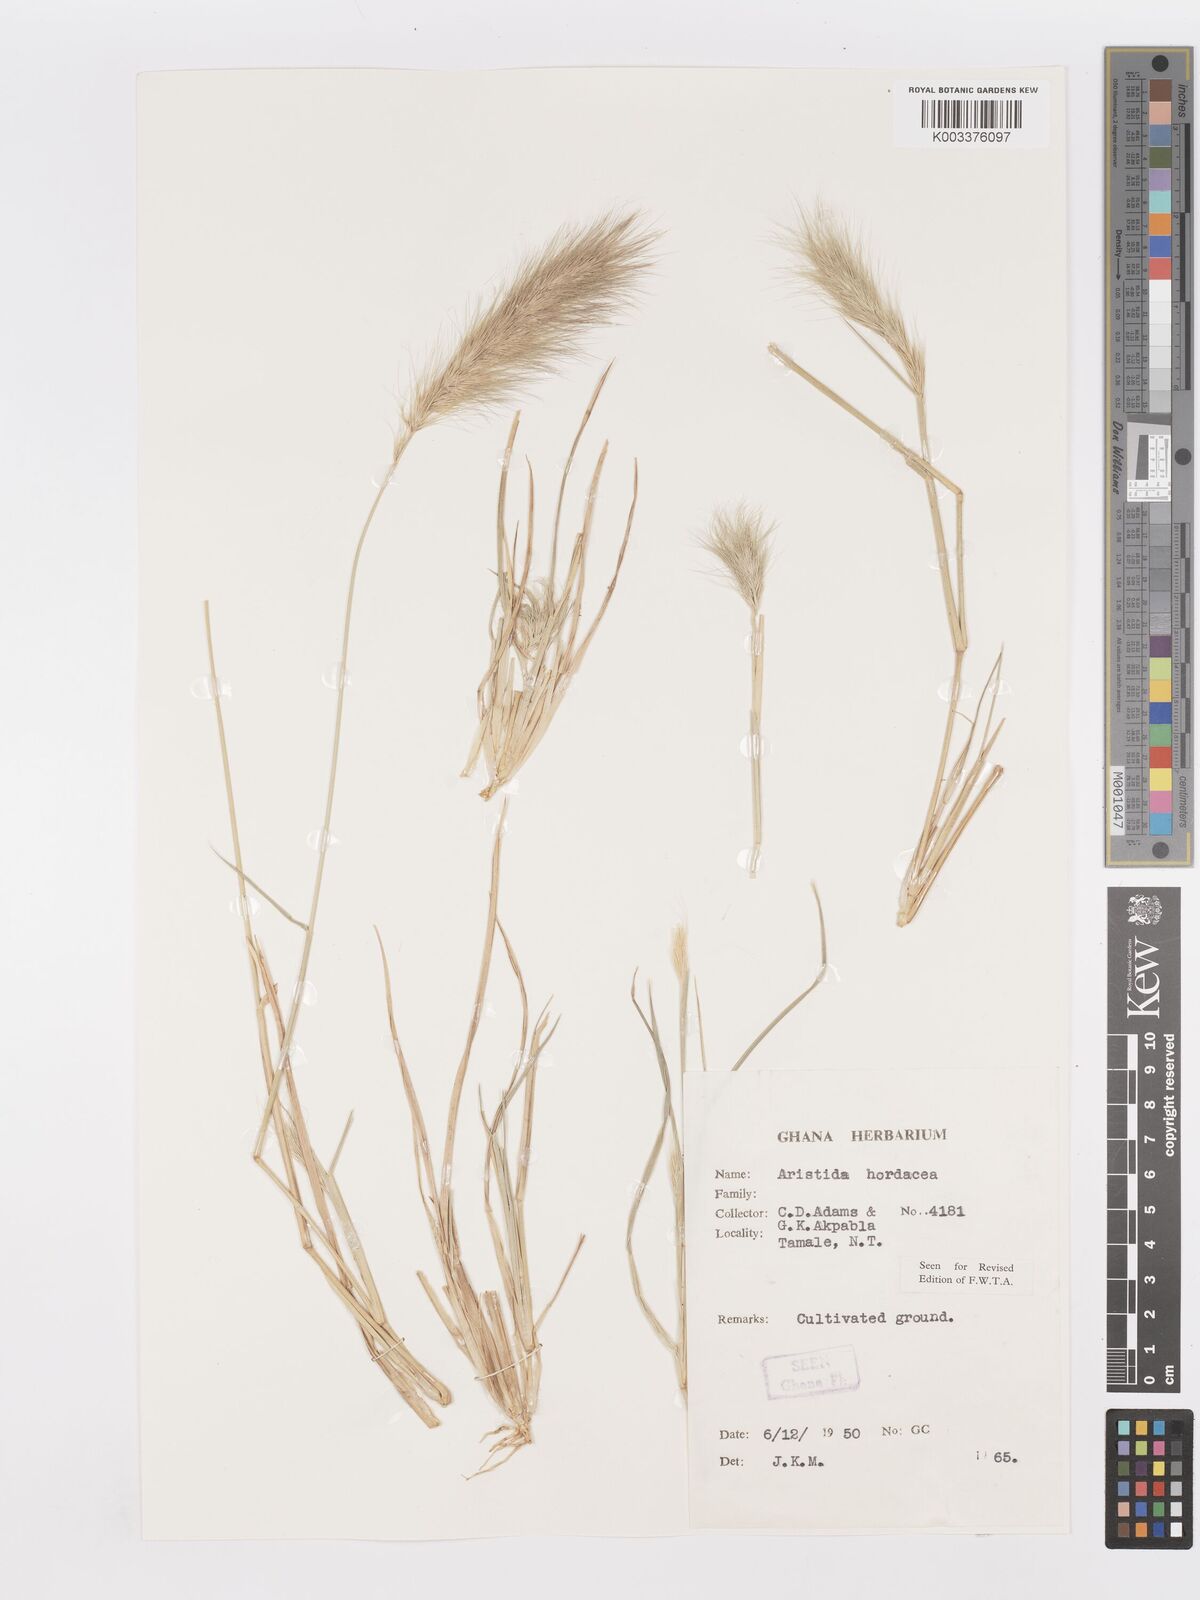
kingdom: Plantae
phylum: Tracheophyta
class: Liliopsida
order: Poales
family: Poaceae
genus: Aristida
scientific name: Aristida hordeacea
